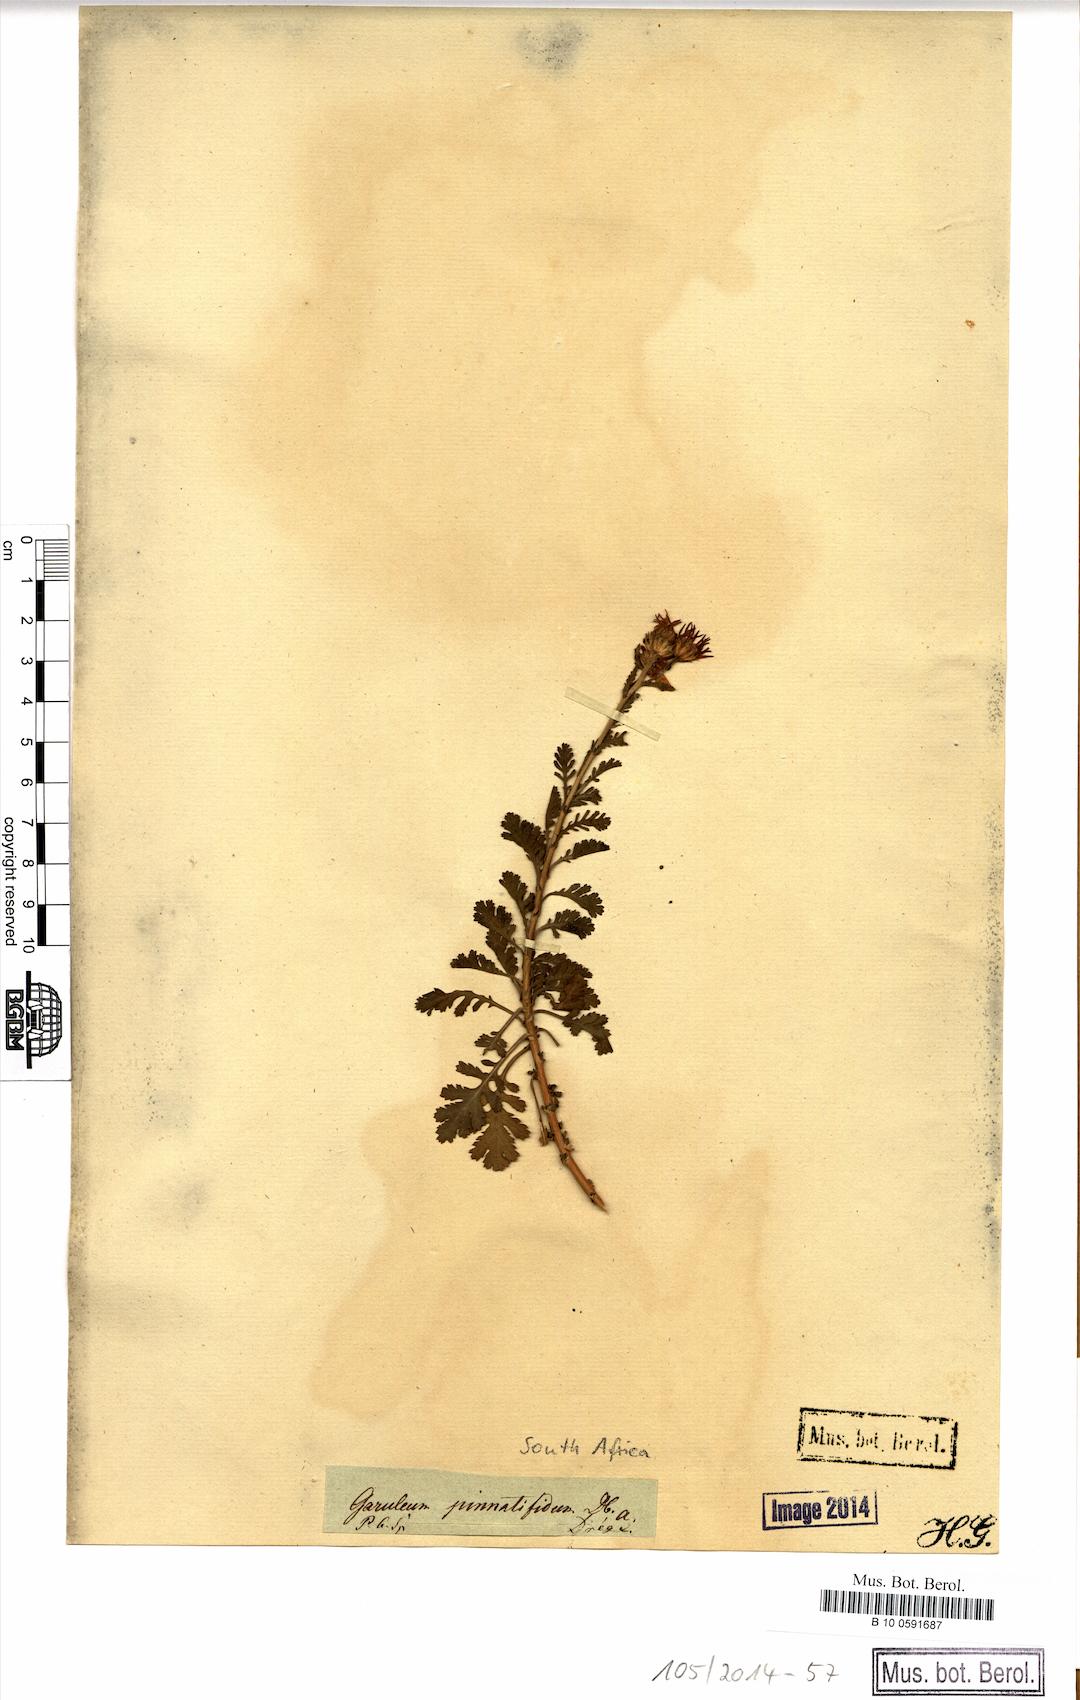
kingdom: Plantae
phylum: Tracheophyta
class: Magnoliopsida
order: Asterales
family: Asteraceae
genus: Garuleum
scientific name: Garuleum pinnatifidum
